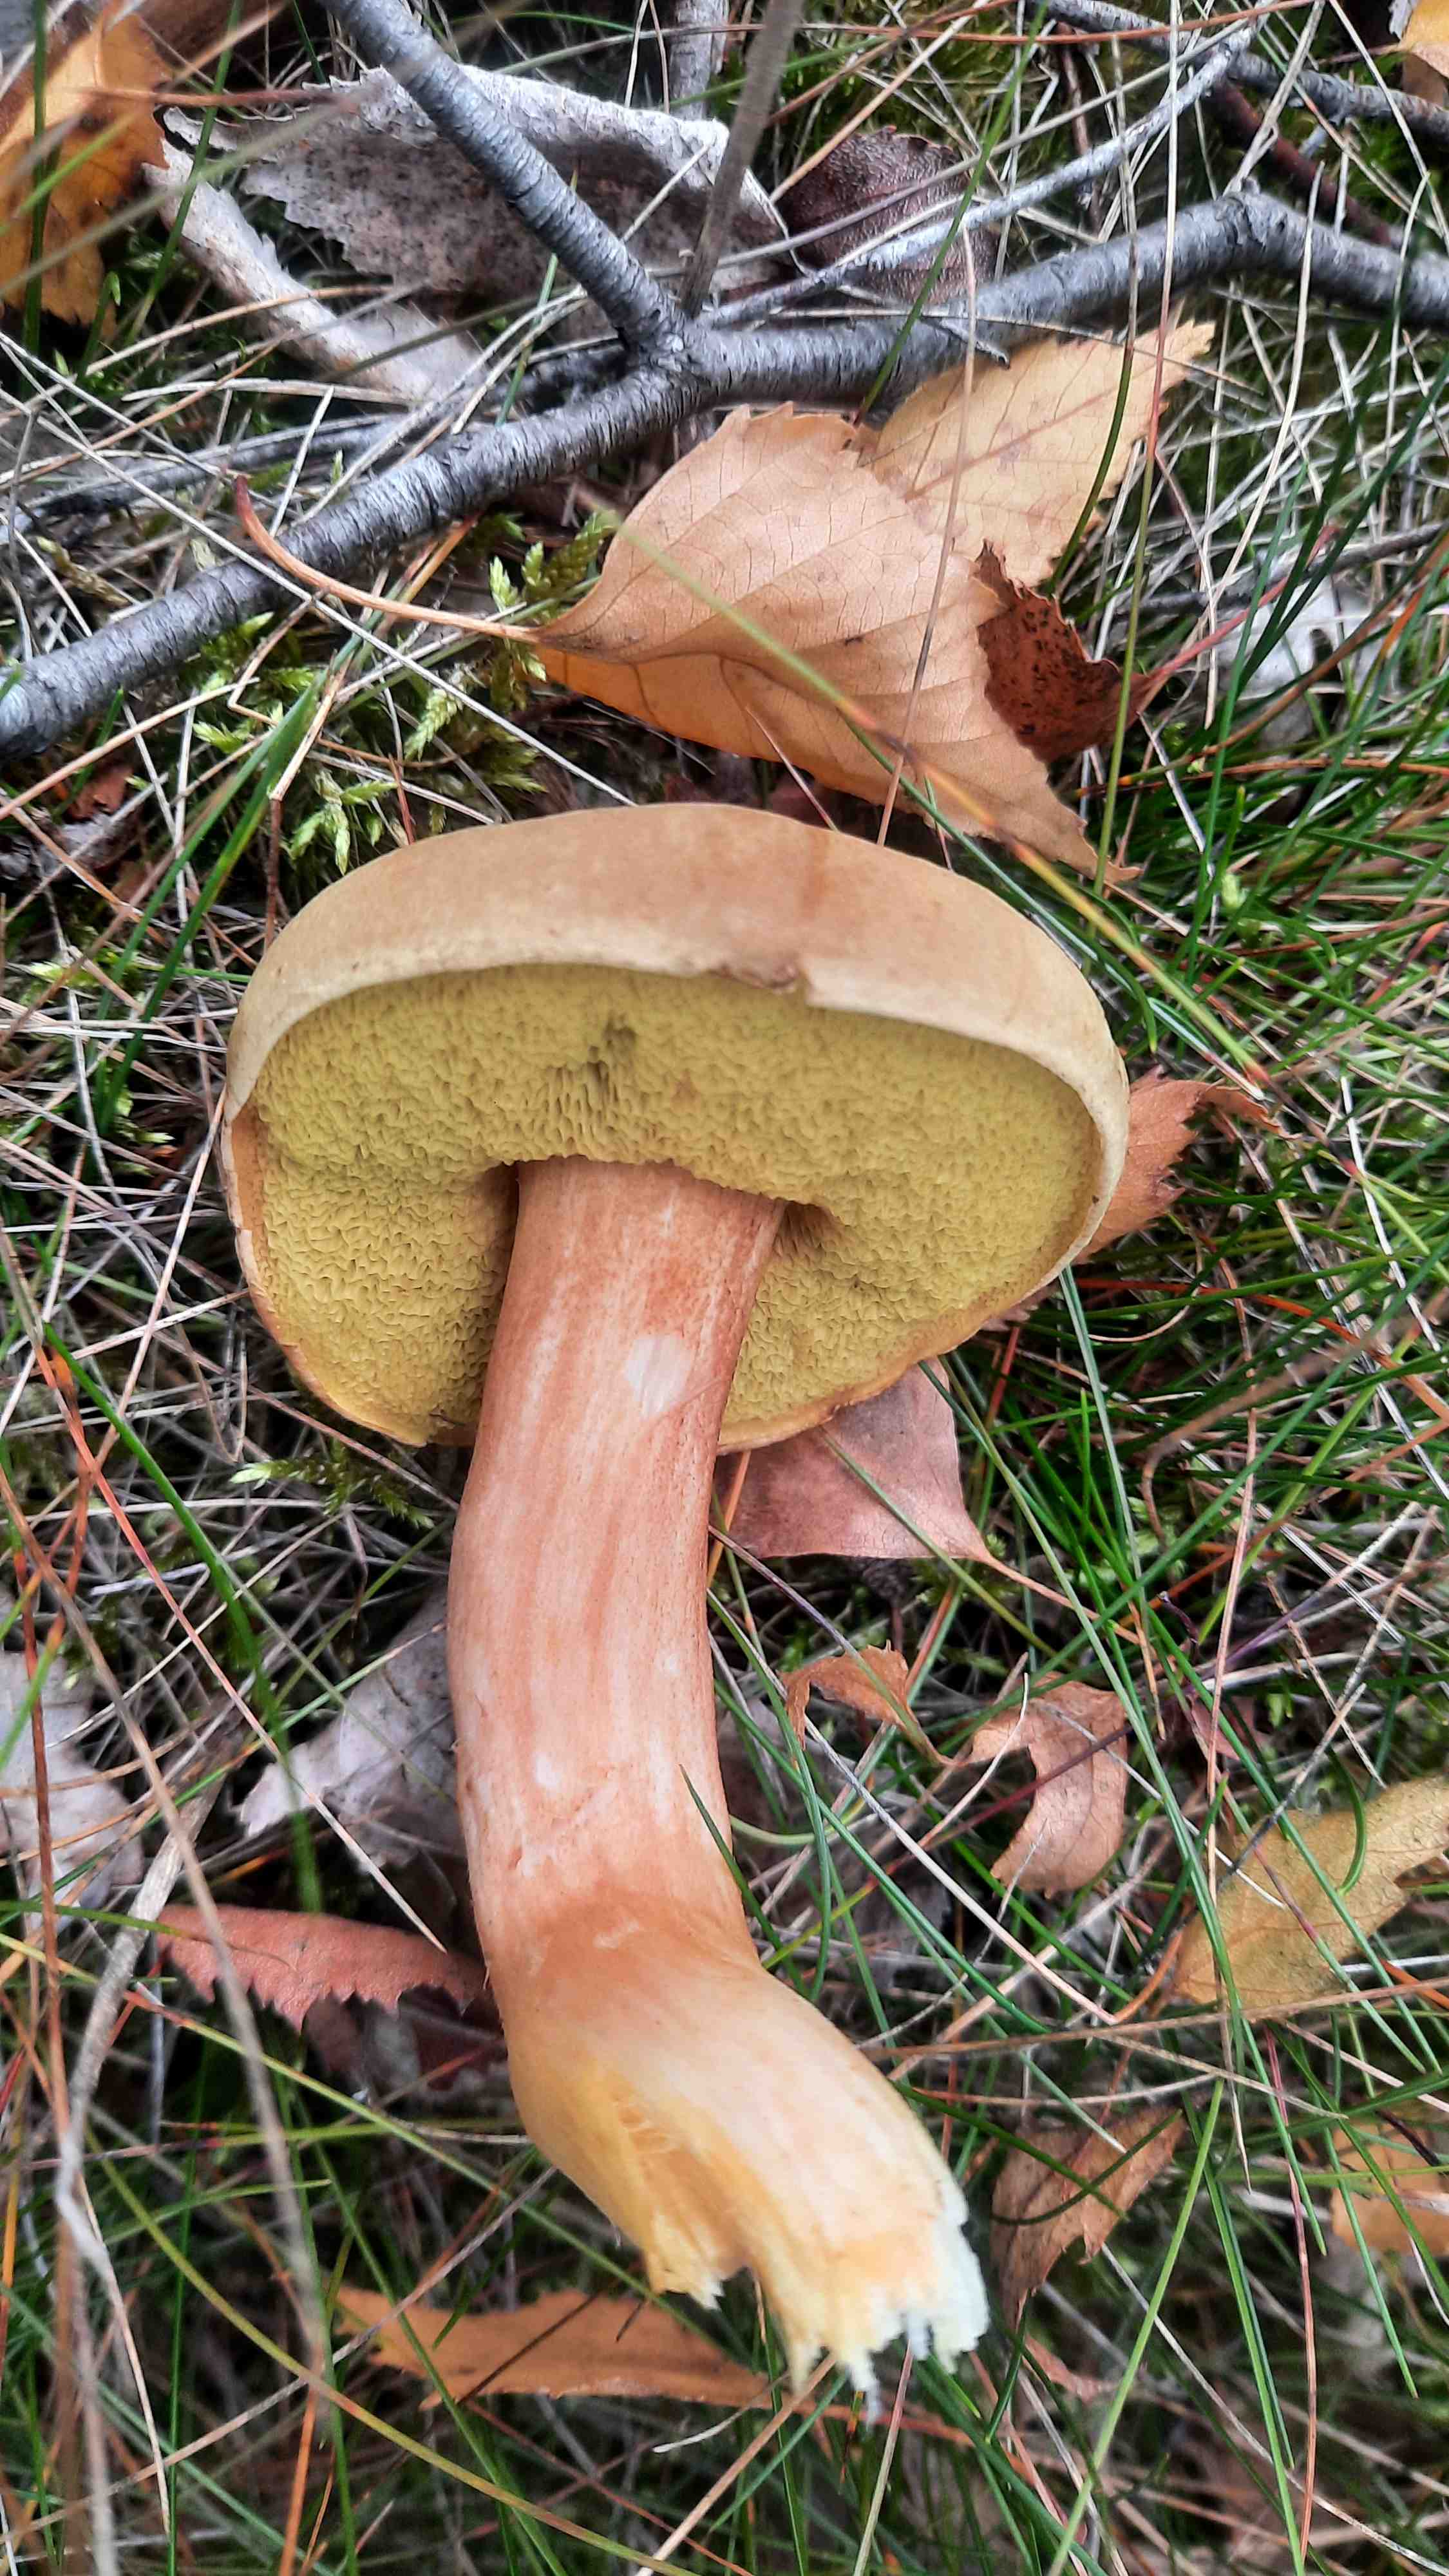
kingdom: Fungi
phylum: Basidiomycota
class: Agaricomycetes
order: Boletales
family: Boletaceae
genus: Xerocomus
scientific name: Xerocomus subtomentosus
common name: filtet rørhat
